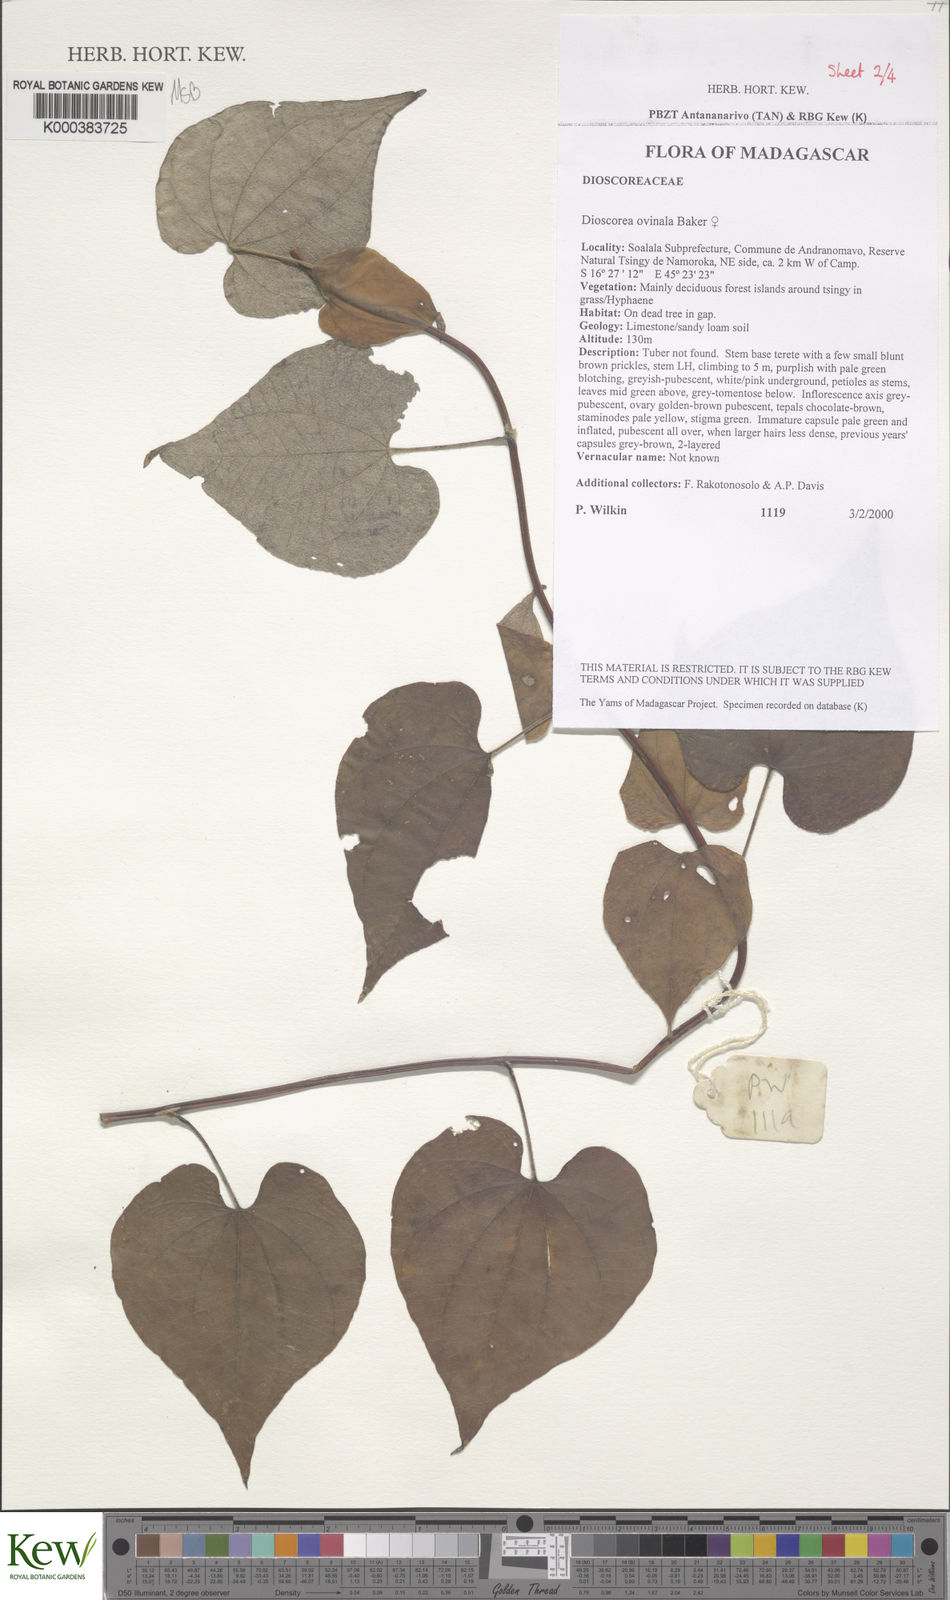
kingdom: Plantae
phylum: Tracheophyta
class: Liliopsida
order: Dioscoreales
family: Dioscoreaceae
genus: Dioscorea
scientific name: Dioscorea ovinala
